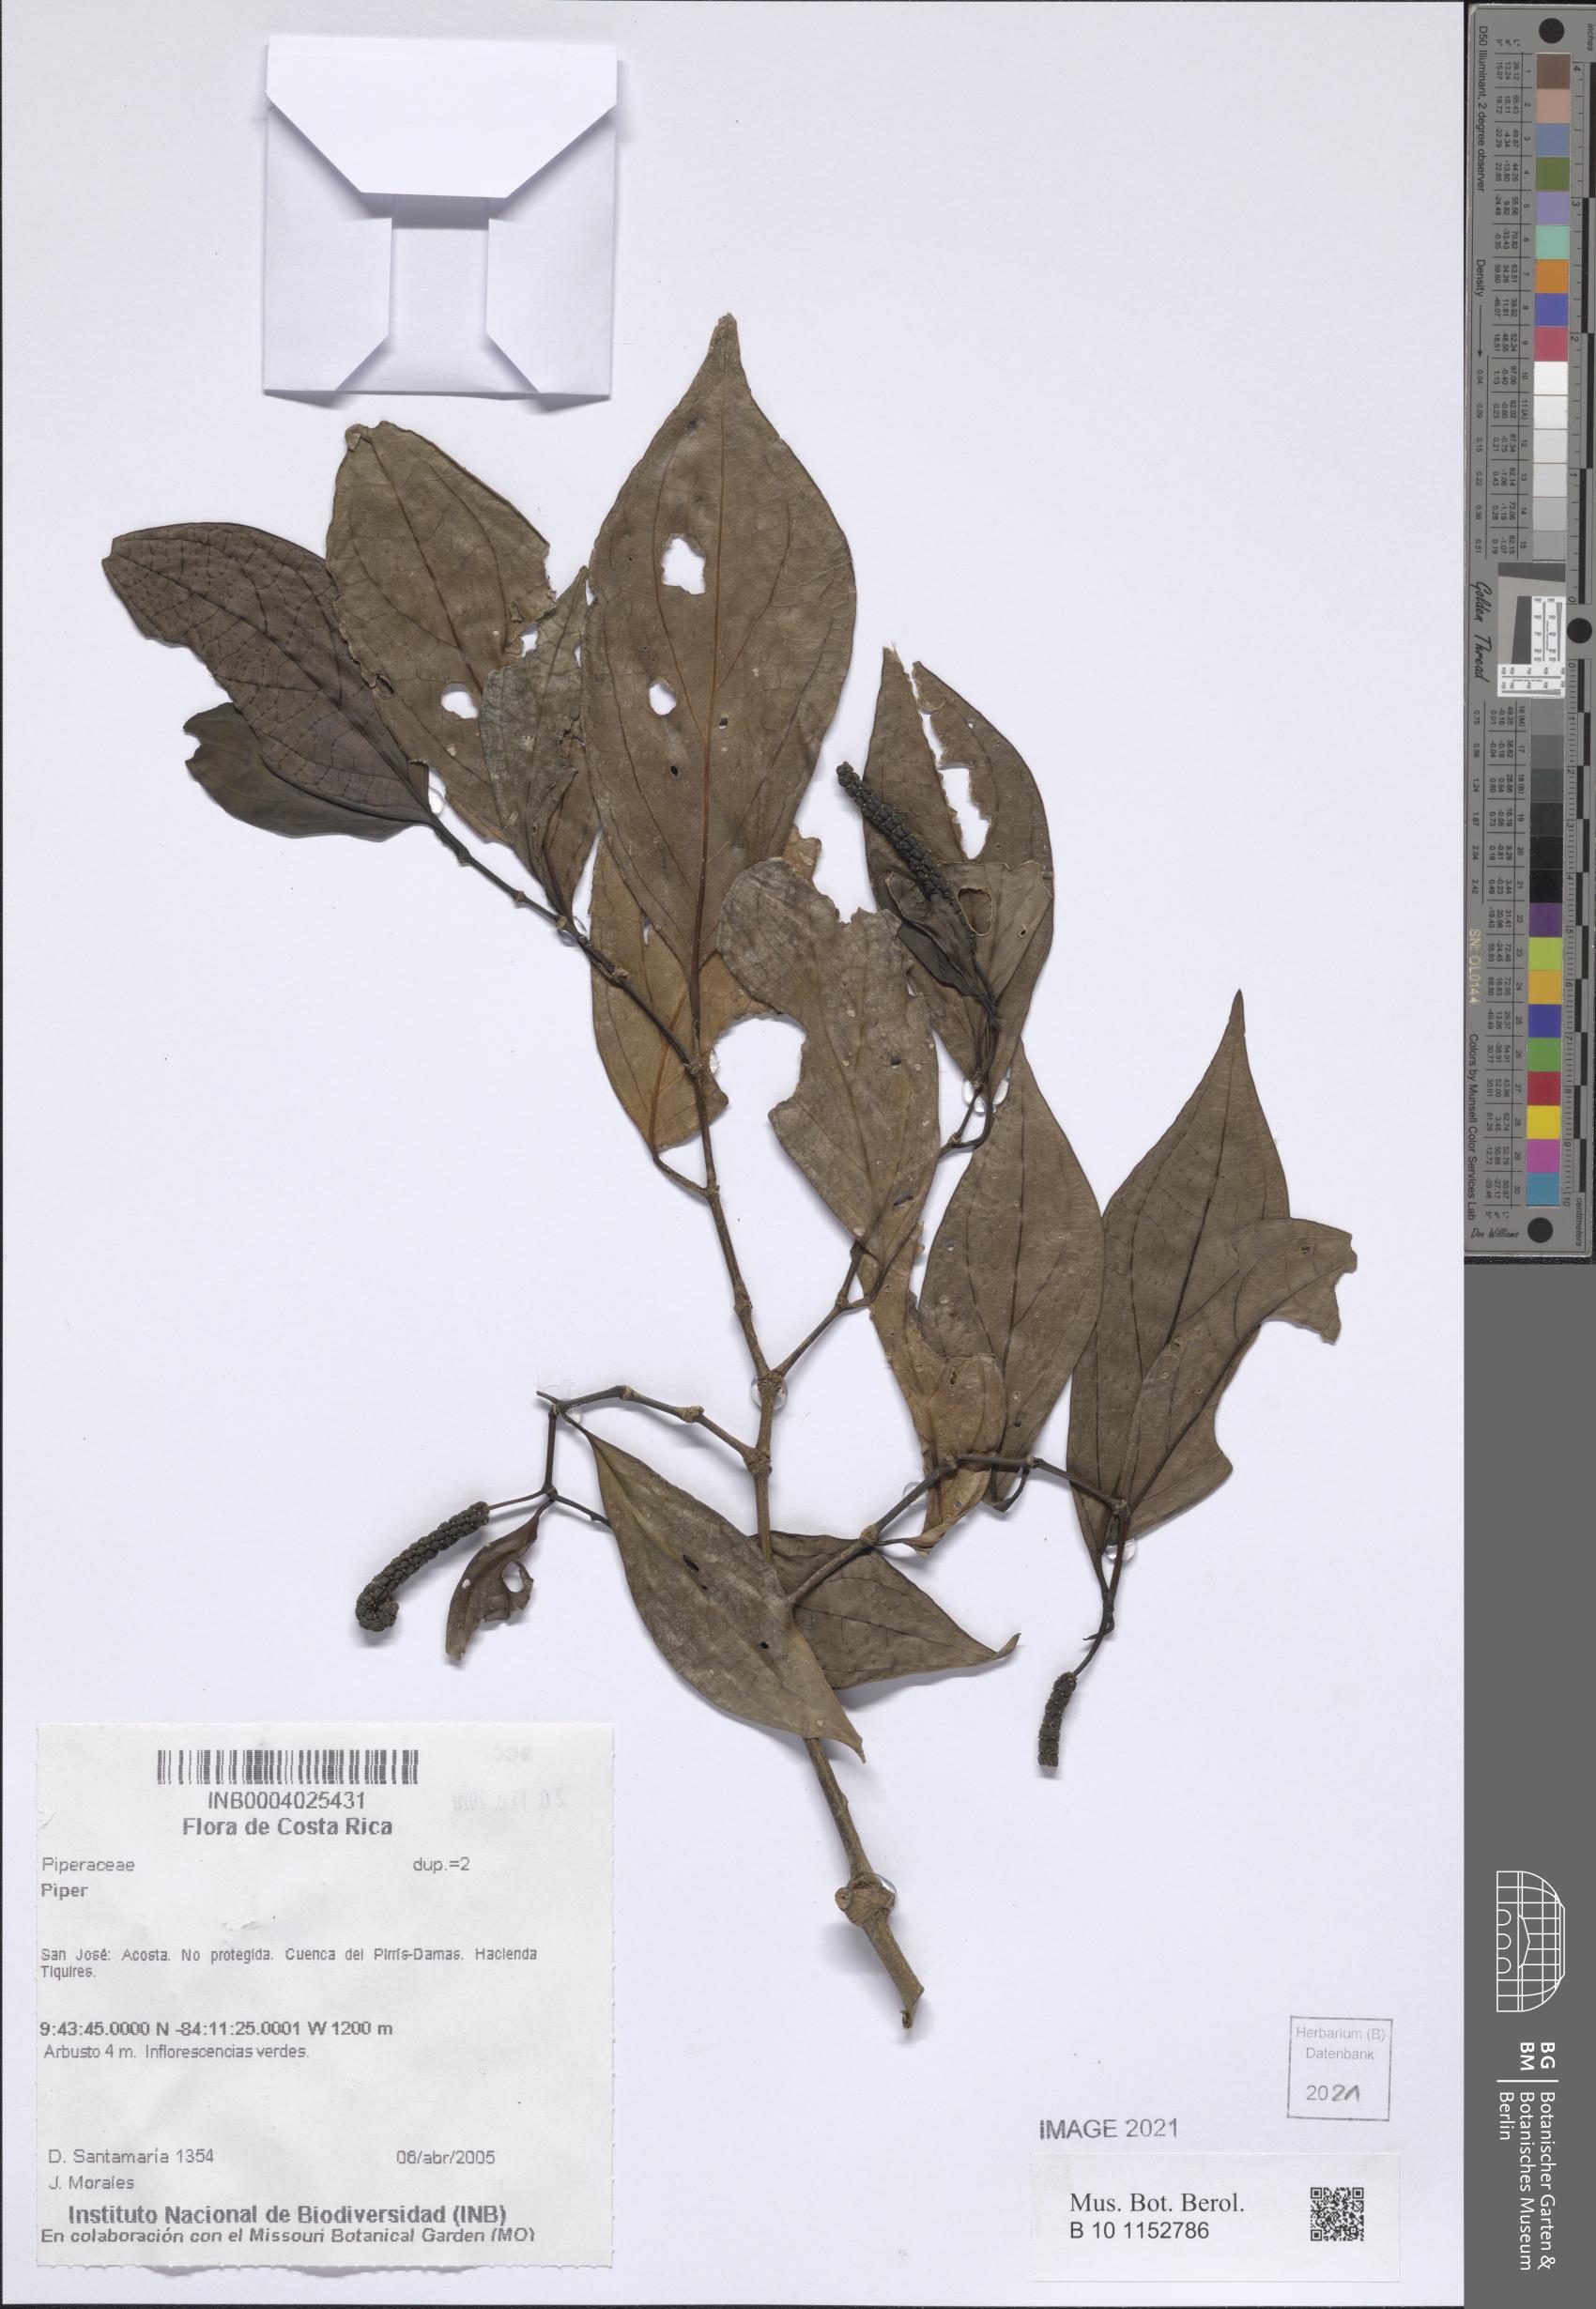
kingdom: Plantae
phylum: Tracheophyta
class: Magnoliopsida
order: Piperales
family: Piperaceae
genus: Piper
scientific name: Piper
